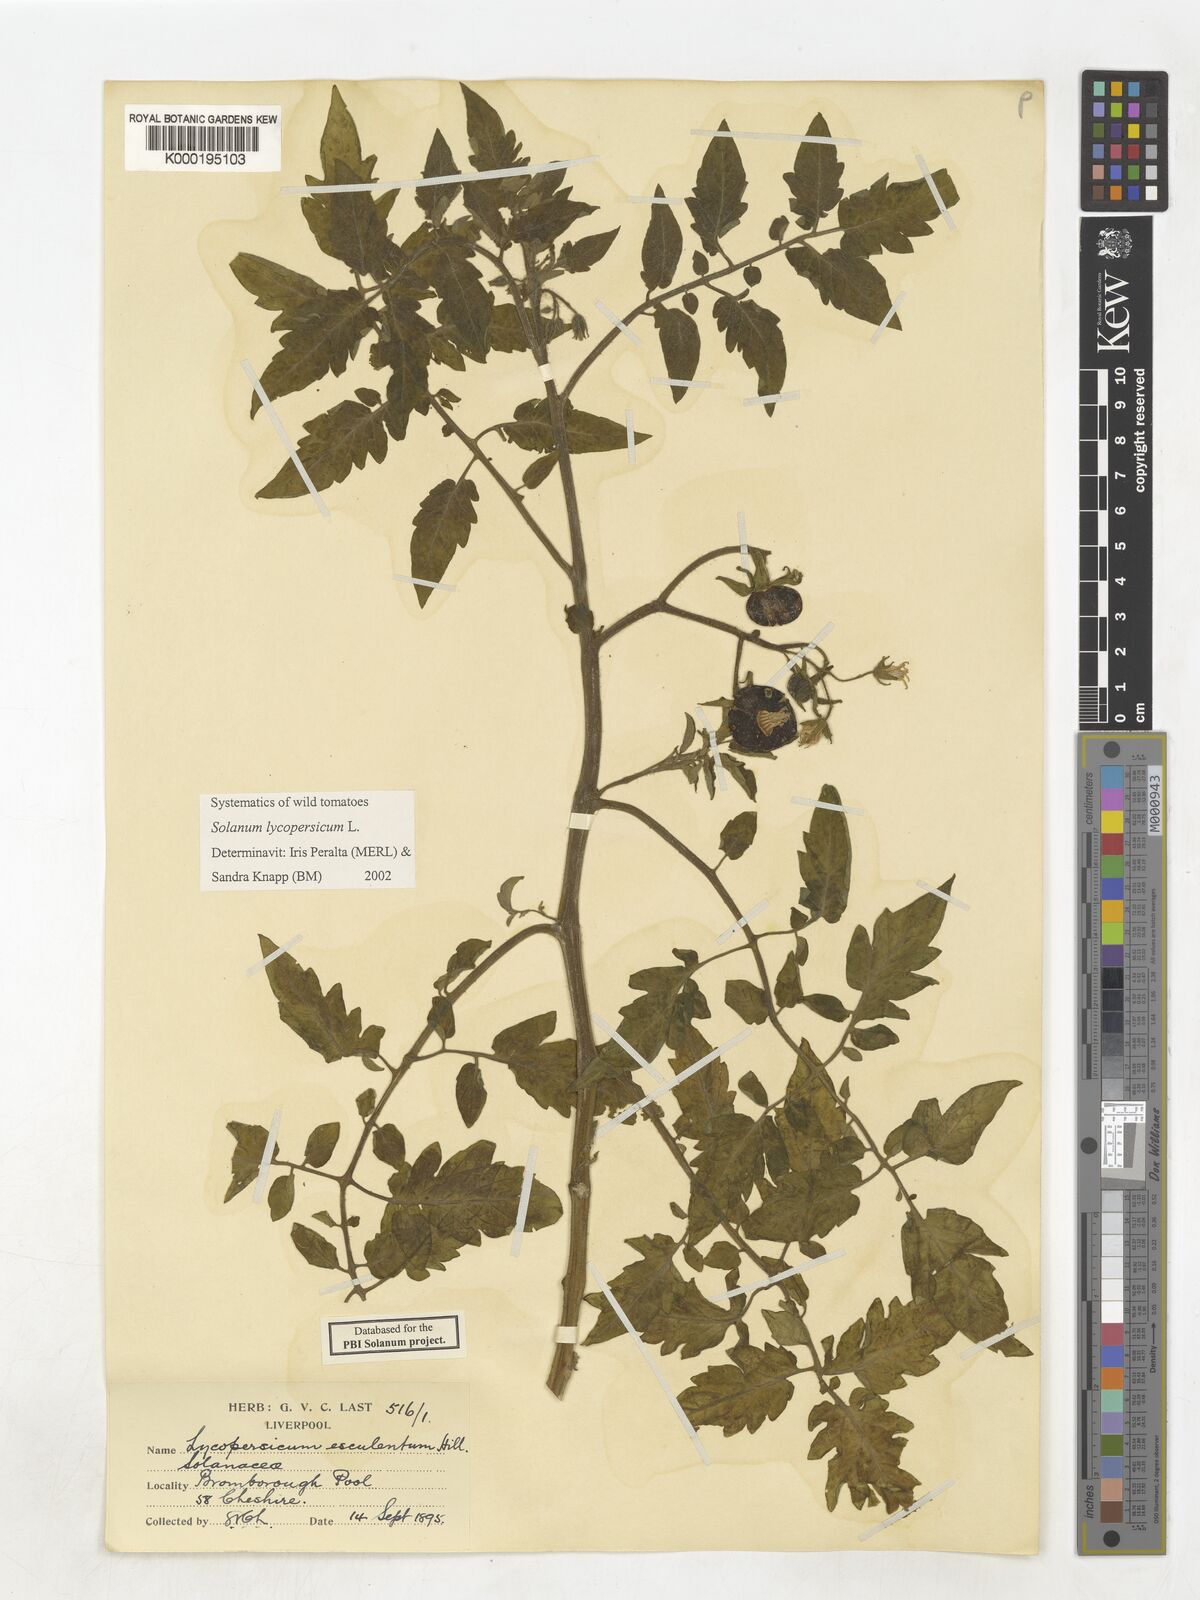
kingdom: Plantae
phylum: Tracheophyta
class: Magnoliopsida
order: Solanales
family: Solanaceae
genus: Solanum
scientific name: Solanum lycopersicum
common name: Garden tomato
